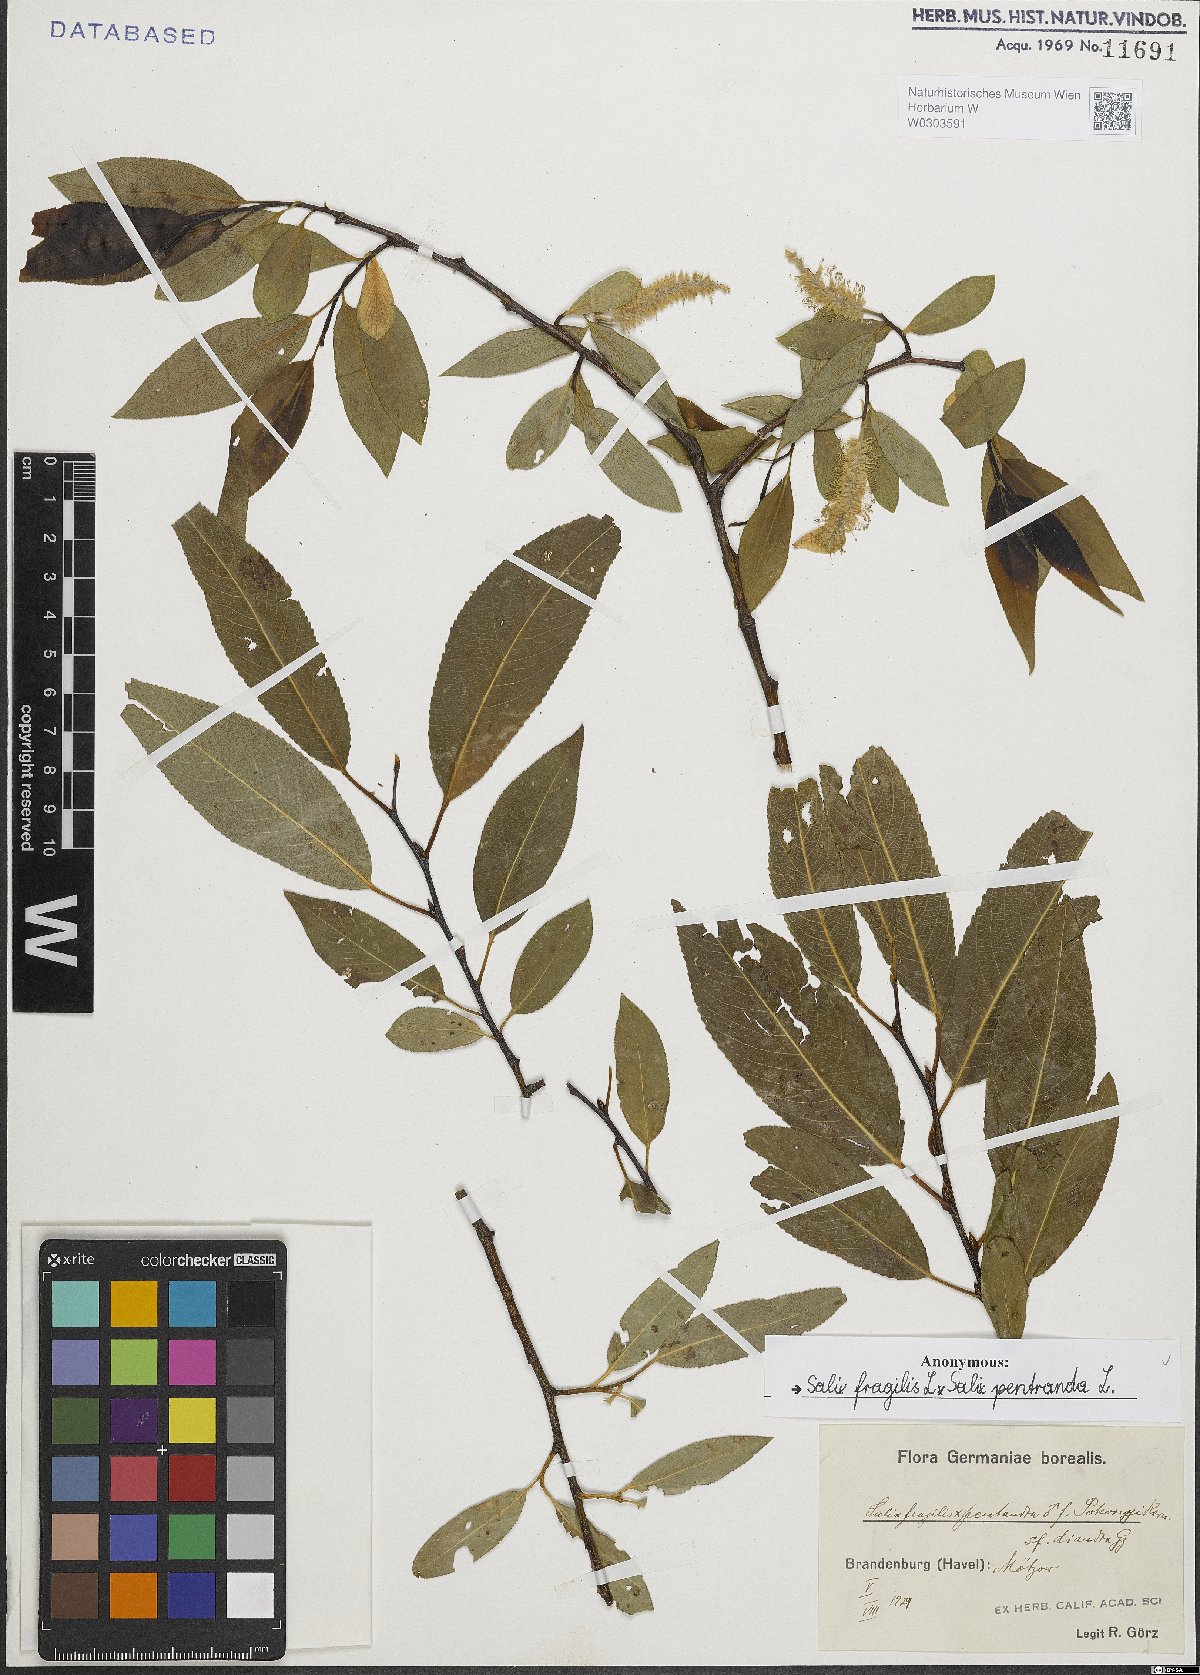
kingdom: Plantae
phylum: Tracheophyta
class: Magnoliopsida
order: Malpighiales
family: Salicaceae
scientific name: Salicaceae
